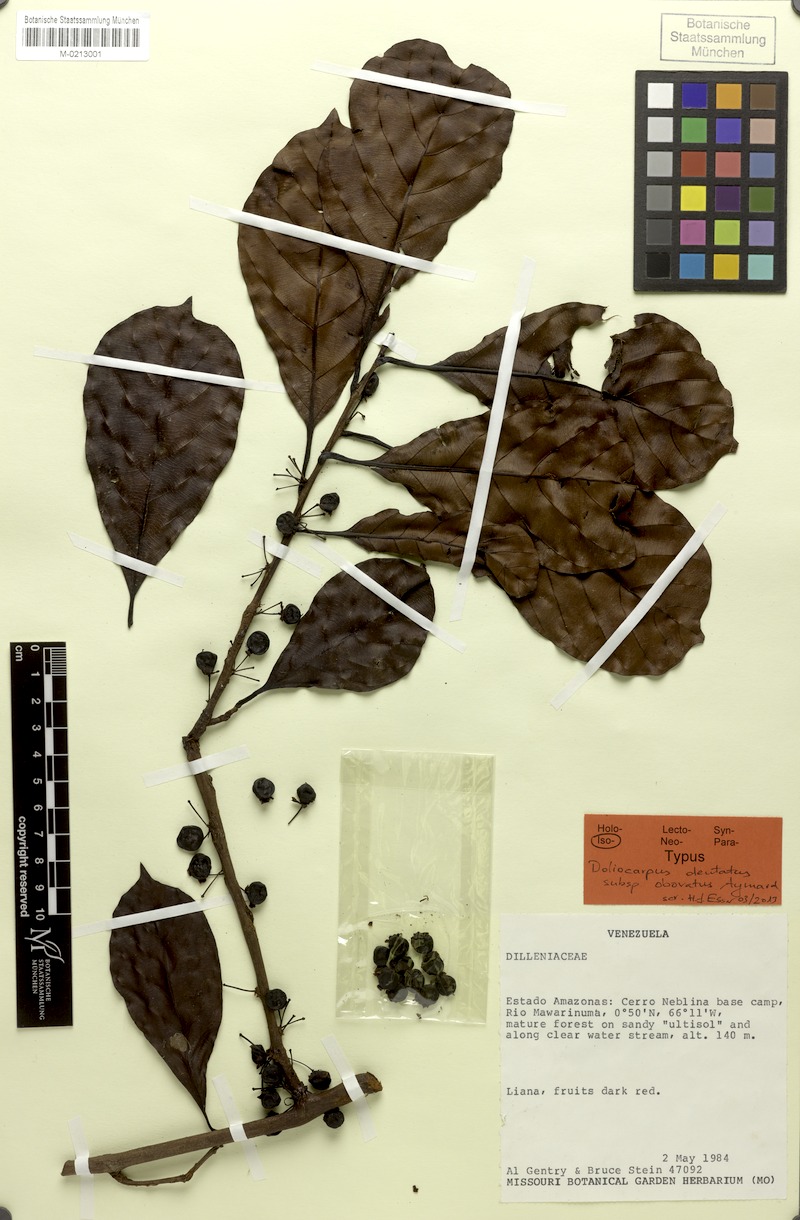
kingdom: Plantae
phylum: Tracheophyta
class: Magnoliopsida
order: Dilleniales
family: Dilleniaceae
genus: Doliocarpus
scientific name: Doliocarpus dentatus
